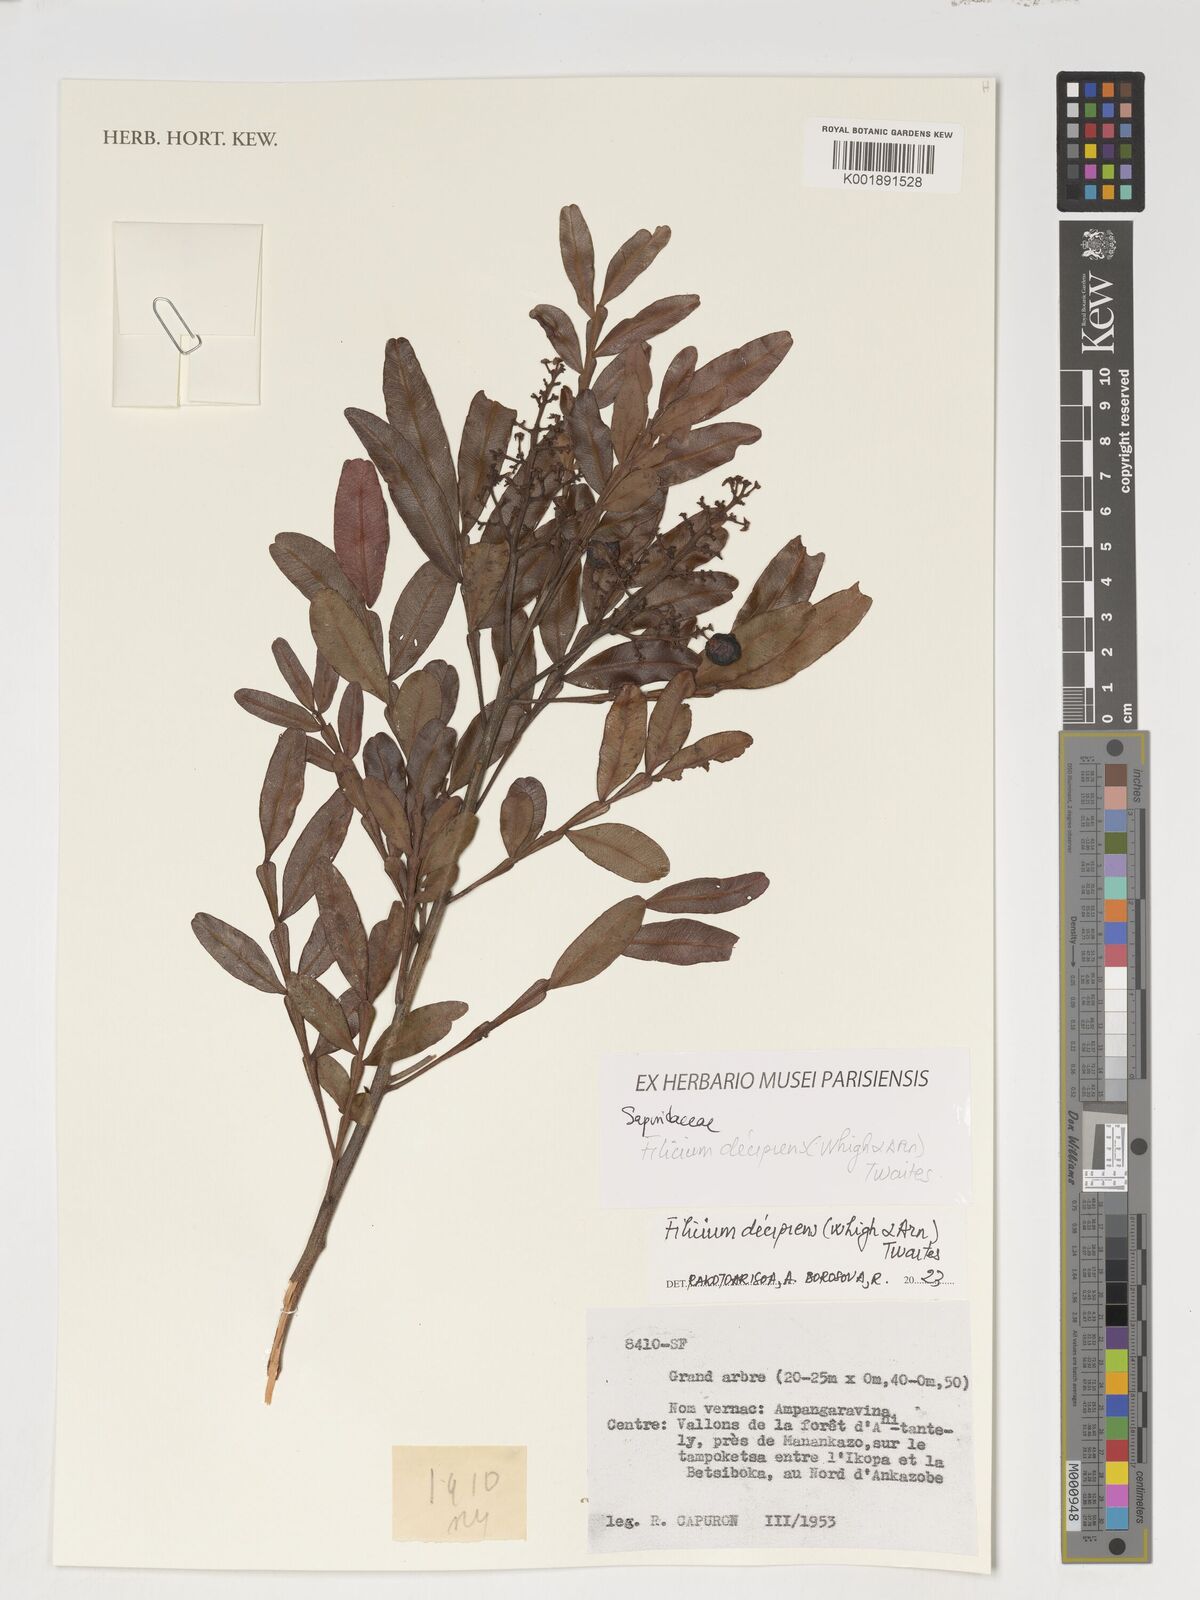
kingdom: Plantae
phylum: Tracheophyta
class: Magnoliopsida
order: Sapindales
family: Sapindaceae
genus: Filicium
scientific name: Filicium decipiens
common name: Ferntree
